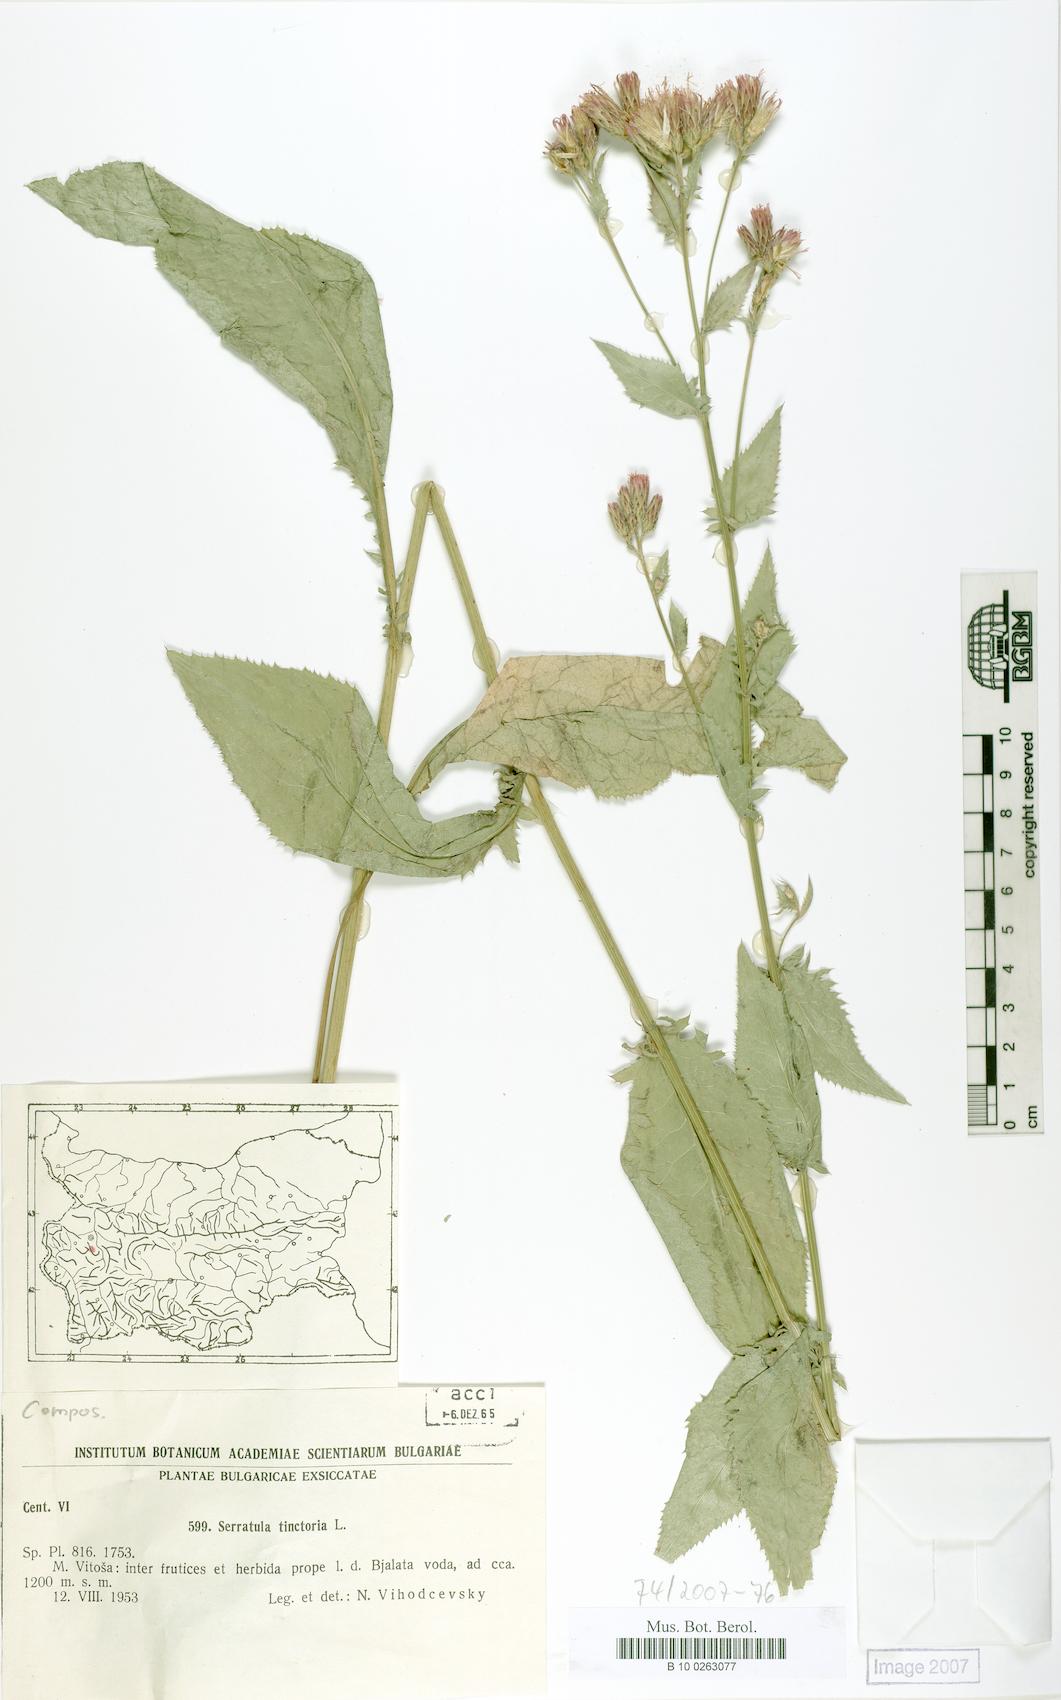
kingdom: Plantae
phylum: Tracheophyta
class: Magnoliopsida
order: Asterales
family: Asteraceae
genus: Serratula
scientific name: Serratula tinctoria
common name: Saw-wort
